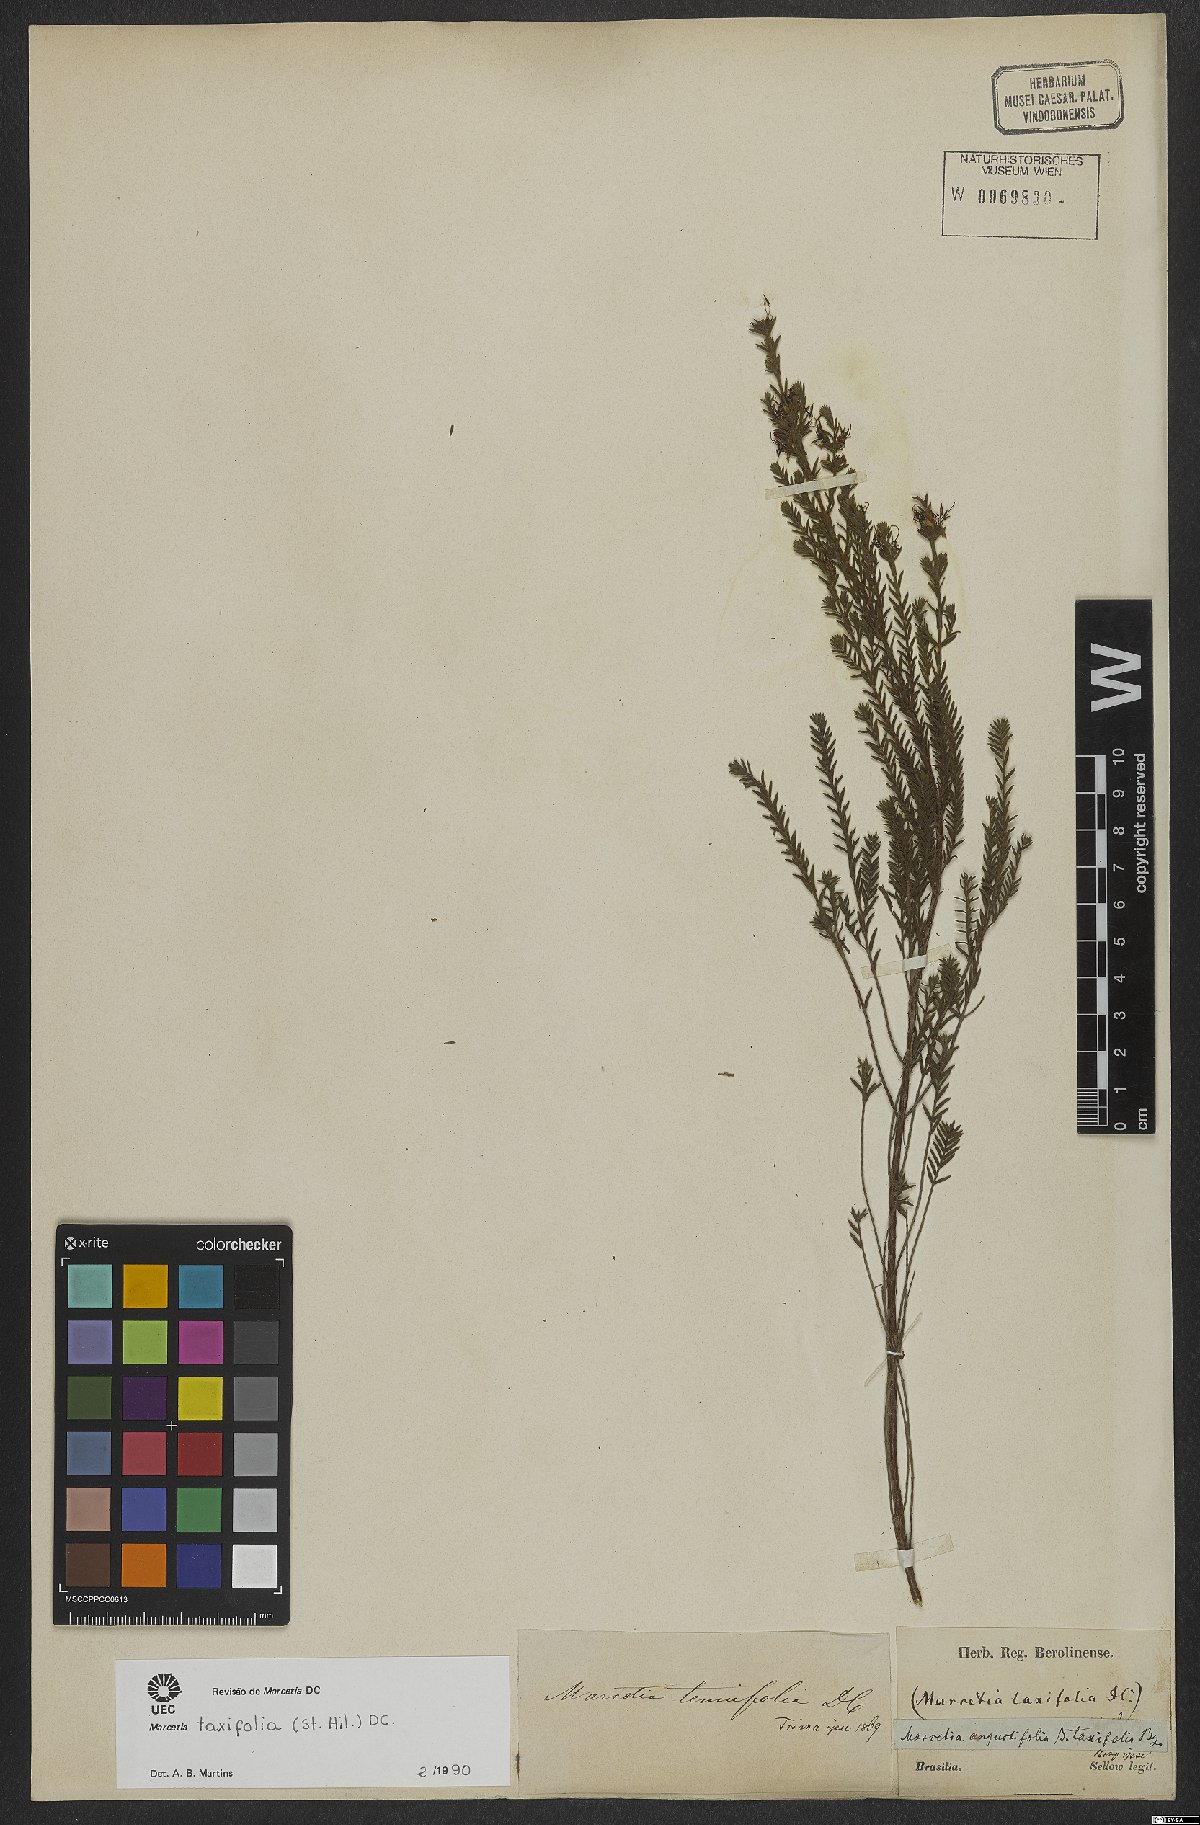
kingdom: Plantae
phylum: Tracheophyta
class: Magnoliopsida
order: Myrtales
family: Melastomataceae
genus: Marcetia
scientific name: Marcetia taxifolia
